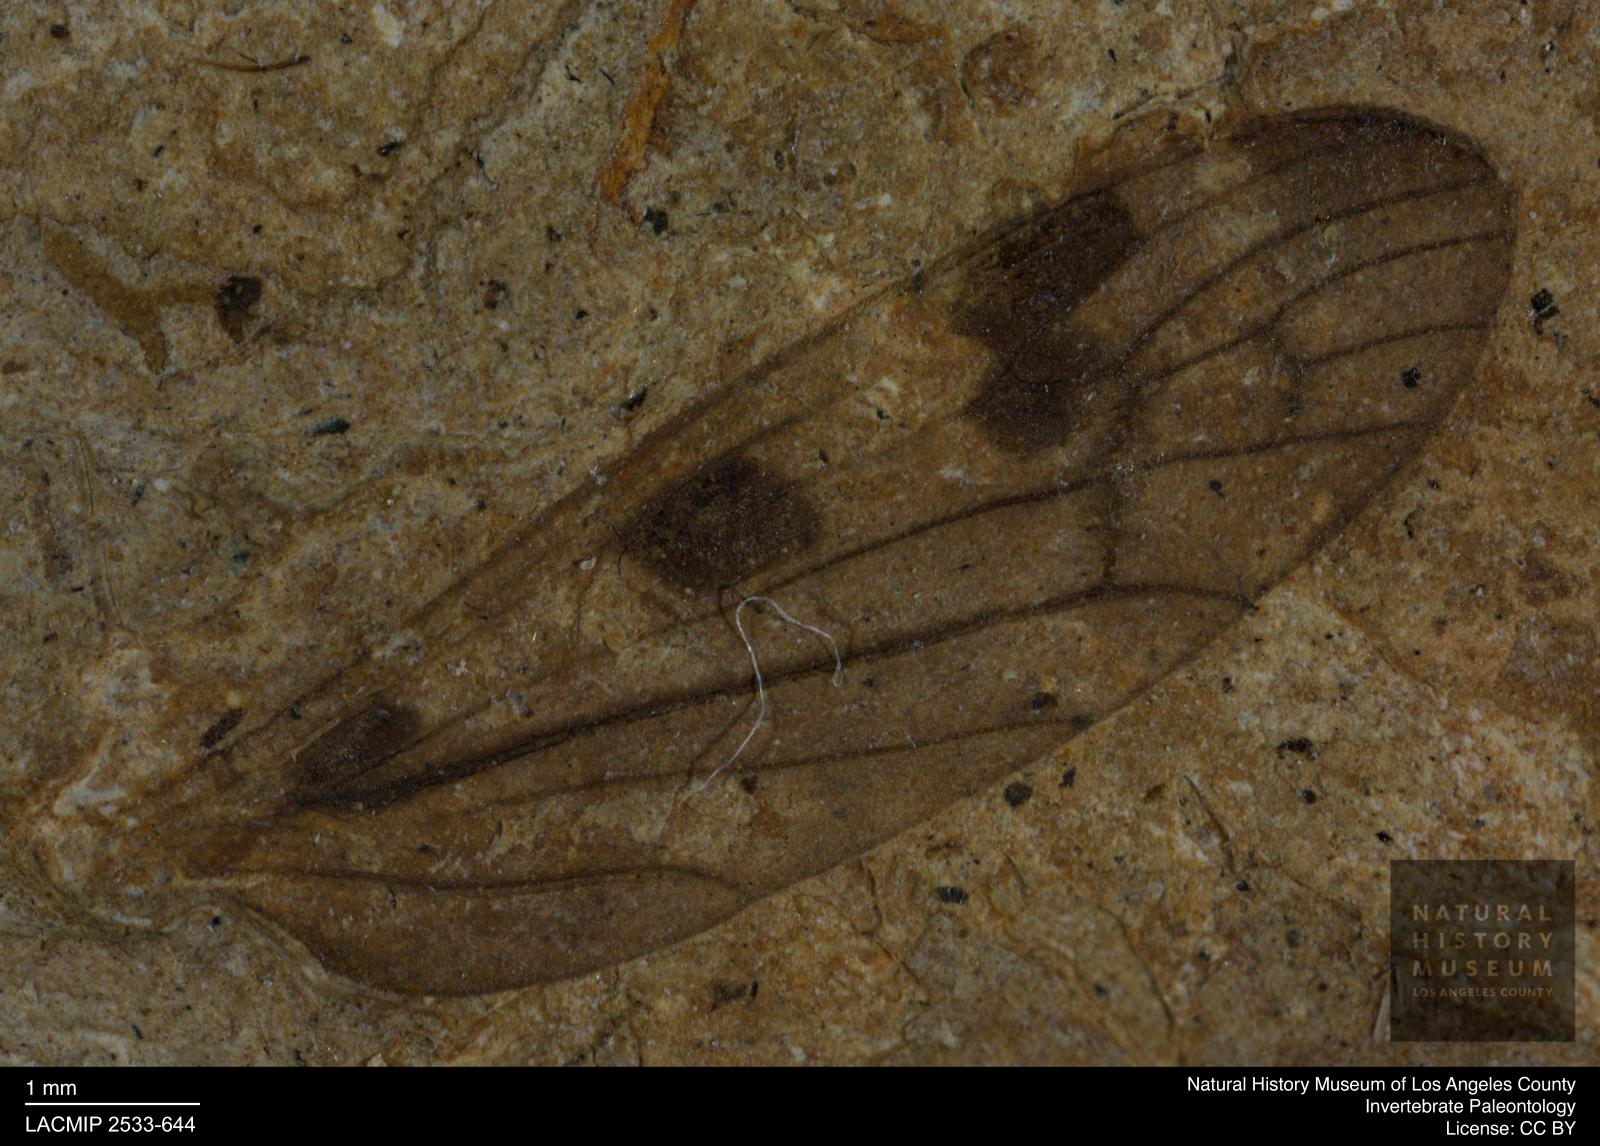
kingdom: Animalia
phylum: Arthropoda
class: Insecta
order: Diptera
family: Limoniidae
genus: Limonia
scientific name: Limonia horioni
